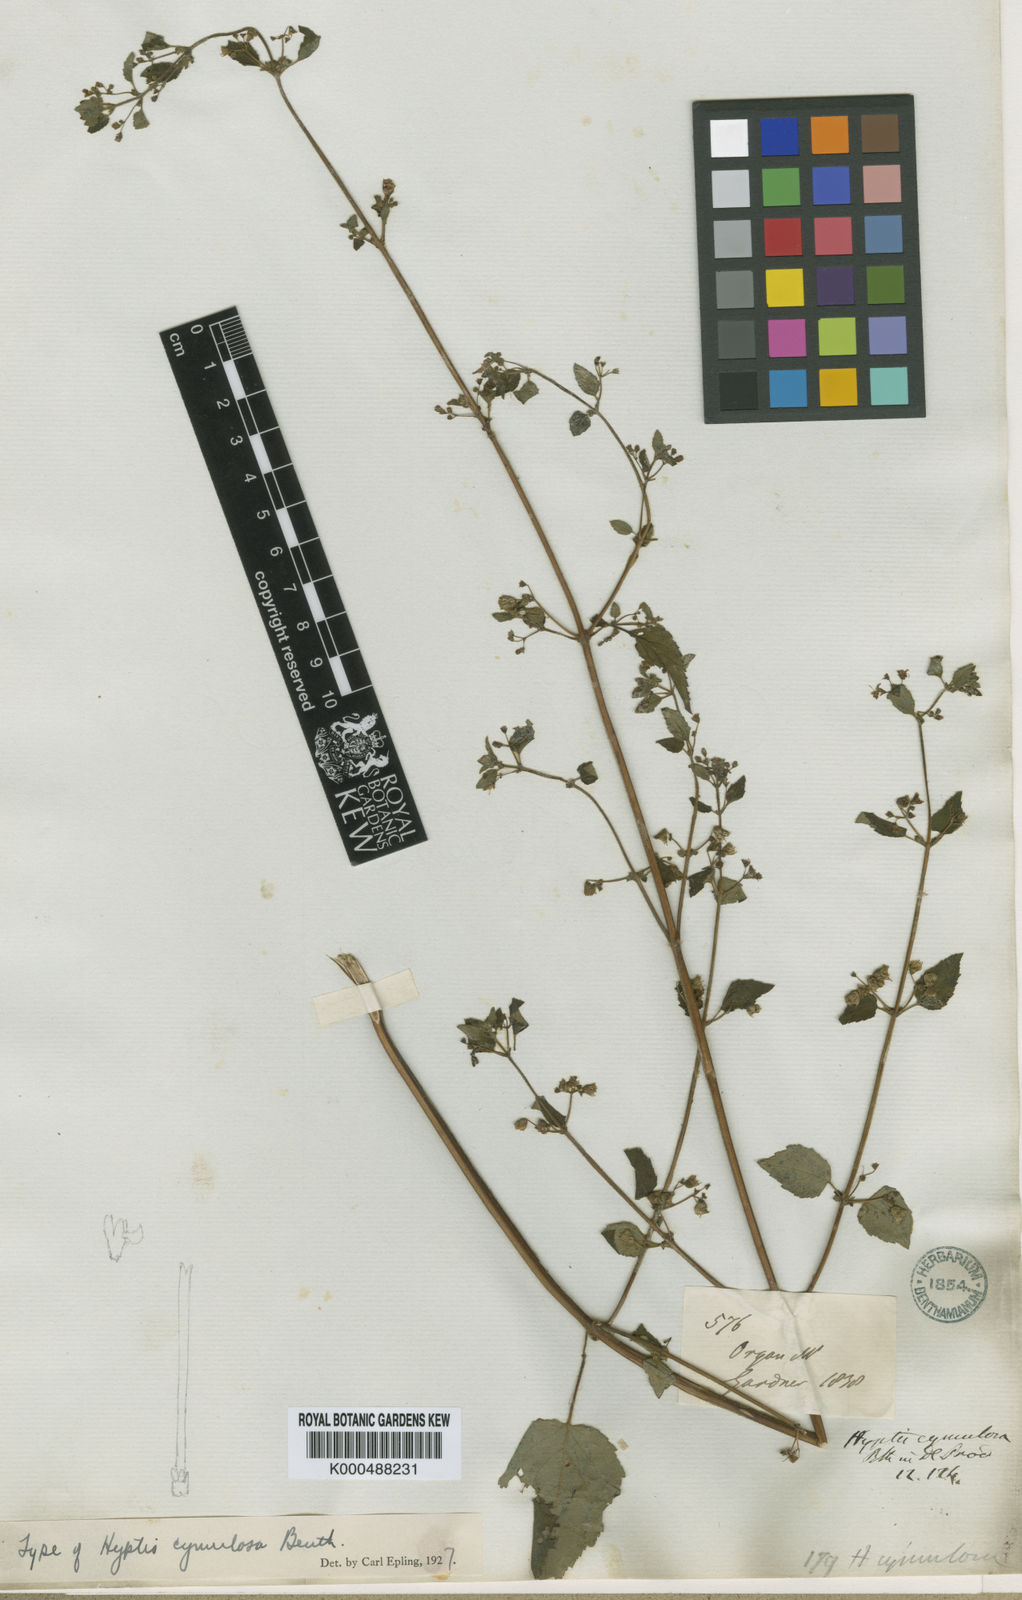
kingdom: Plantae
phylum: Tracheophyta
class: Magnoliopsida
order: Lamiales
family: Lamiaceae
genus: Hyptis
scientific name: Hyptis cymulosa
